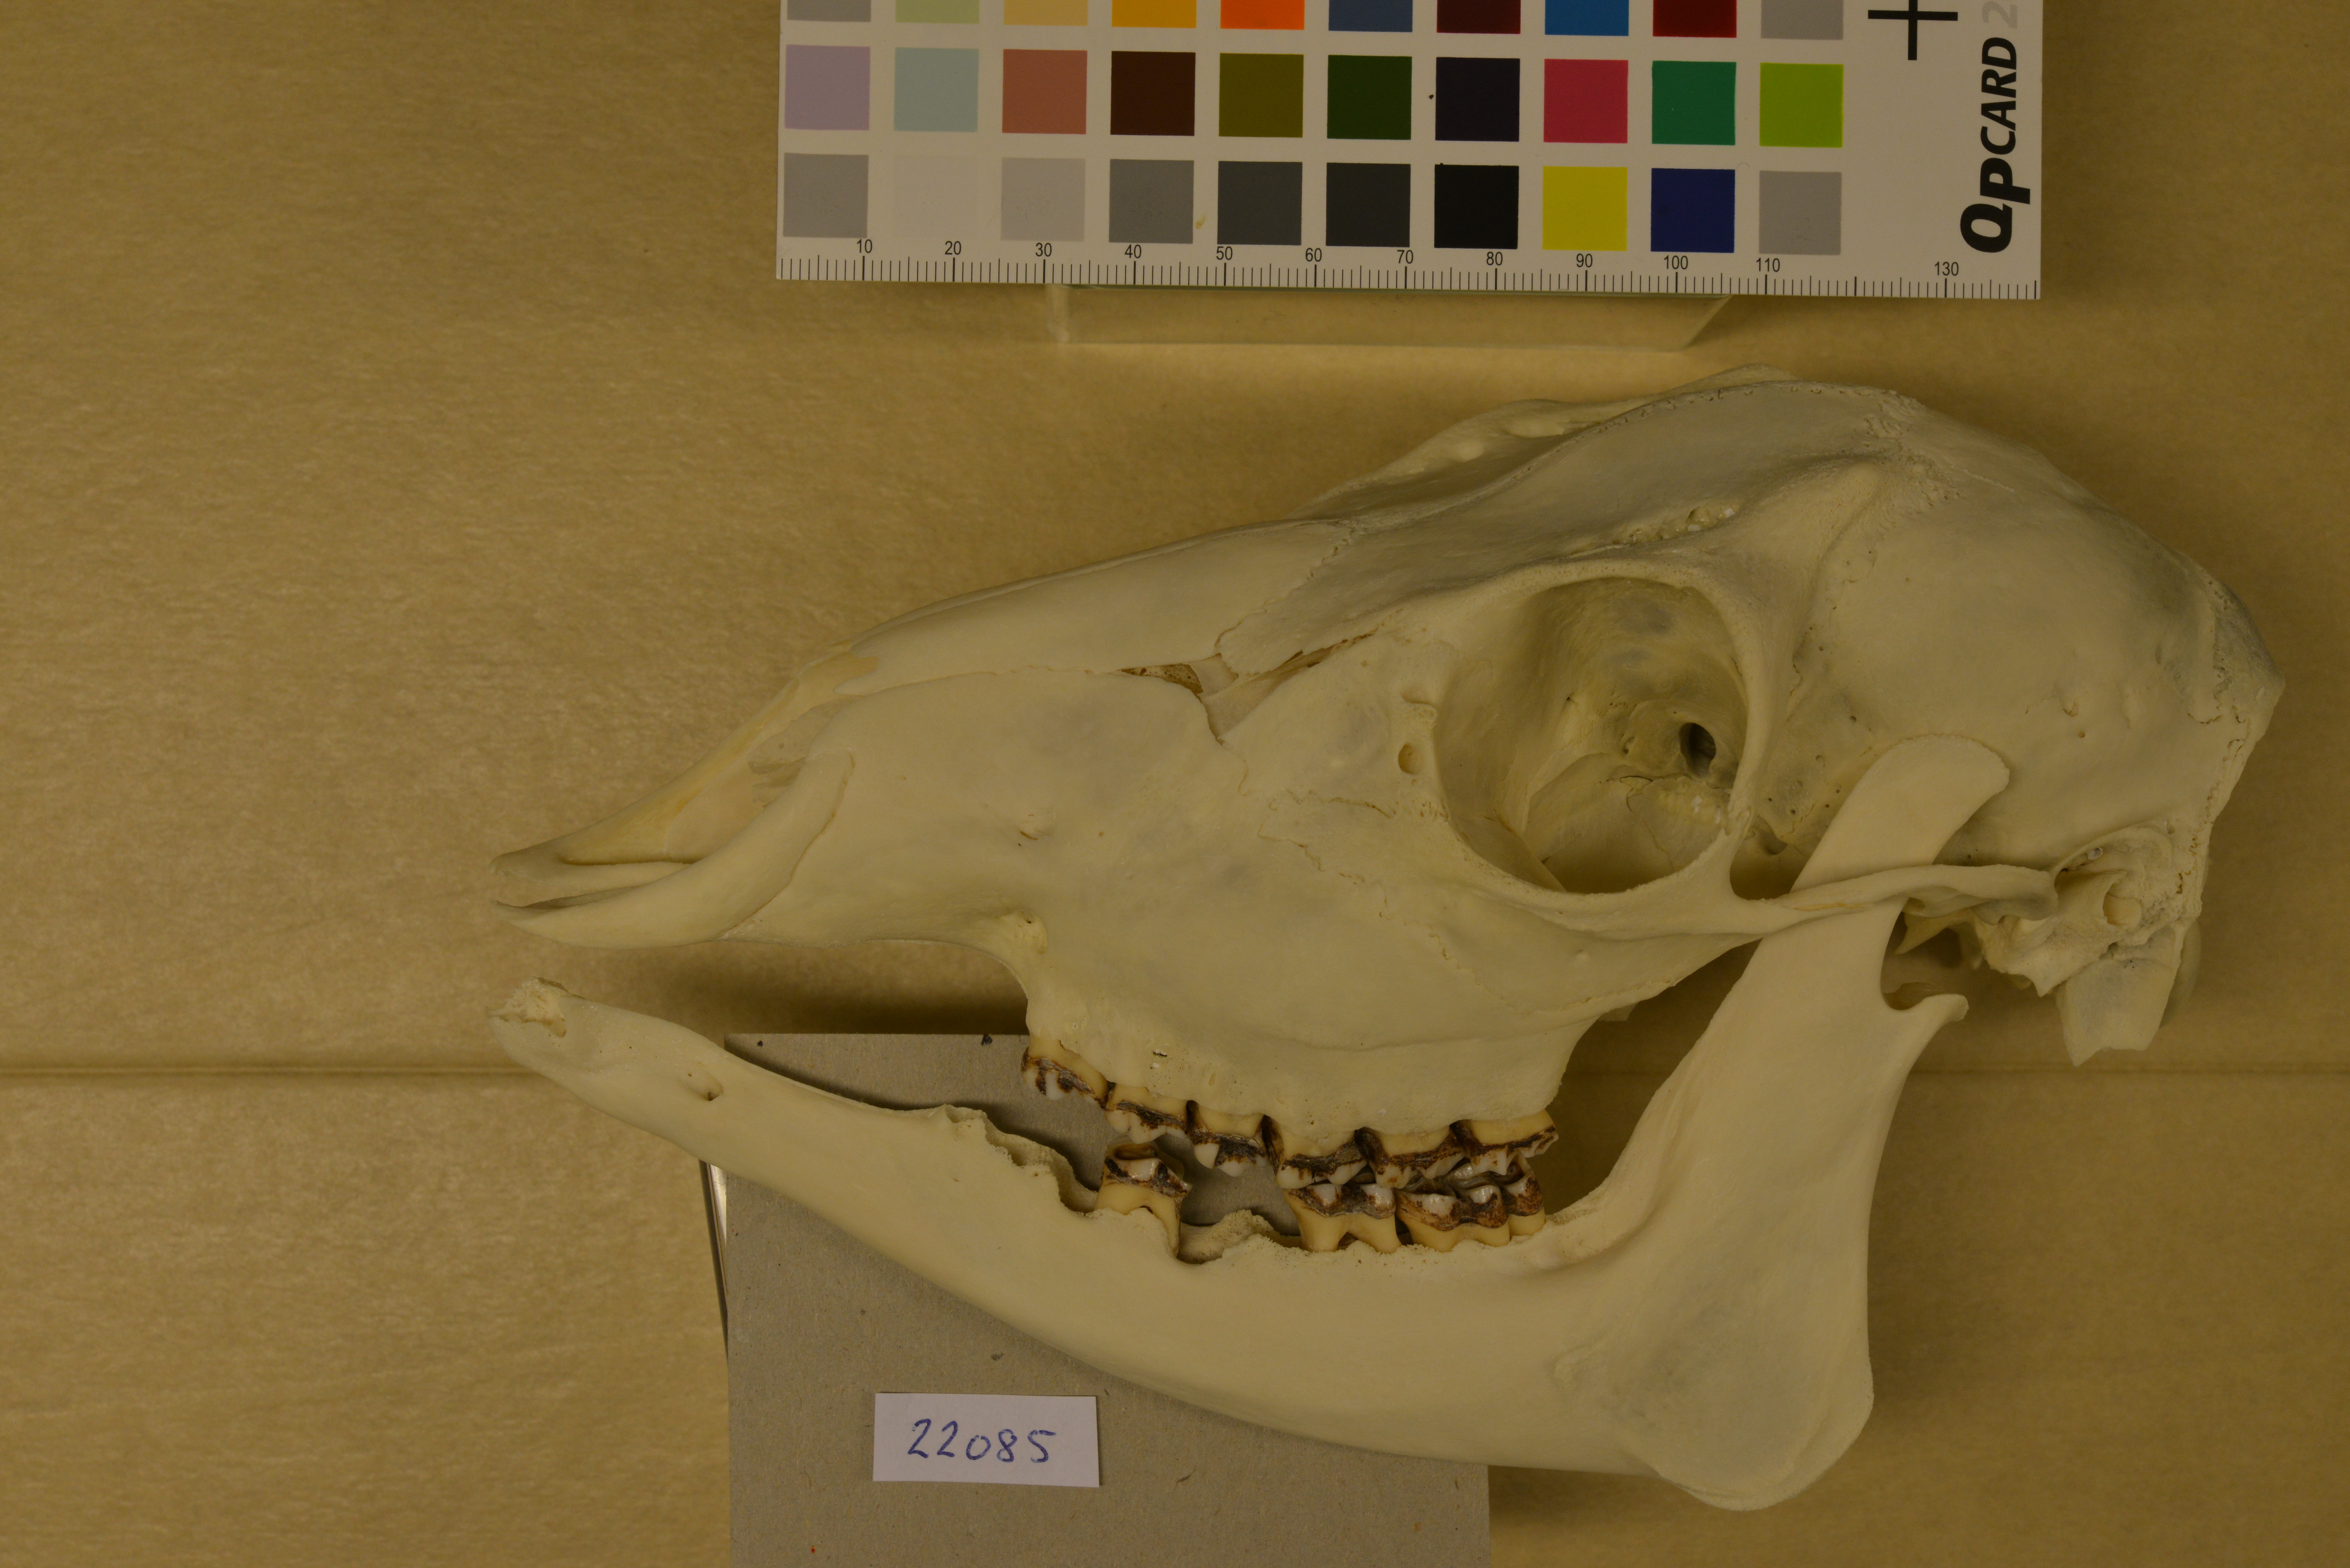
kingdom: Animalia
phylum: Chordata
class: Mammalia
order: Artiodactyla
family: Cervidae
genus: Capreolus
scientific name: Capreolus capreolus
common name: Western roe deer
